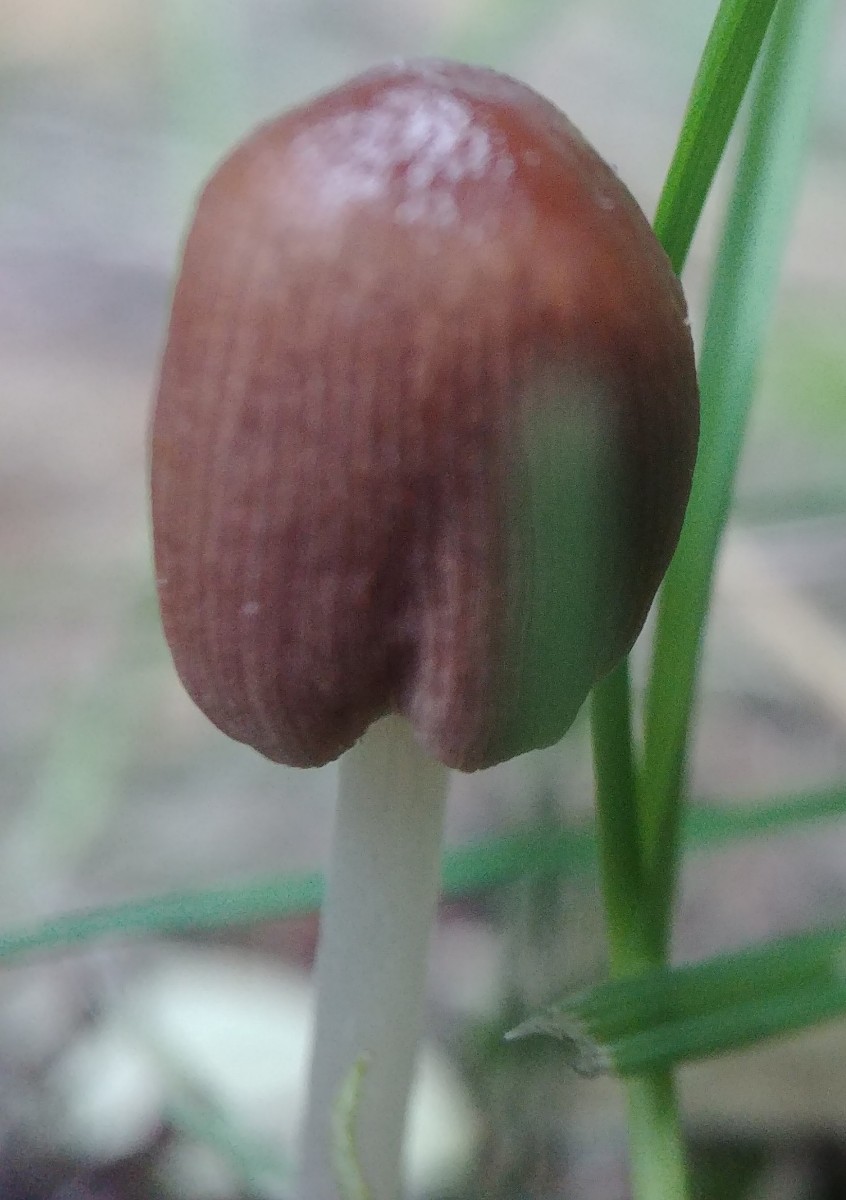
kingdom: Fungi
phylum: Basidiomycota
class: Agaricomycetes
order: Agaricales
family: Psathyrellaceae
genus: Parasola
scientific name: Parasola
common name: hjulhat
